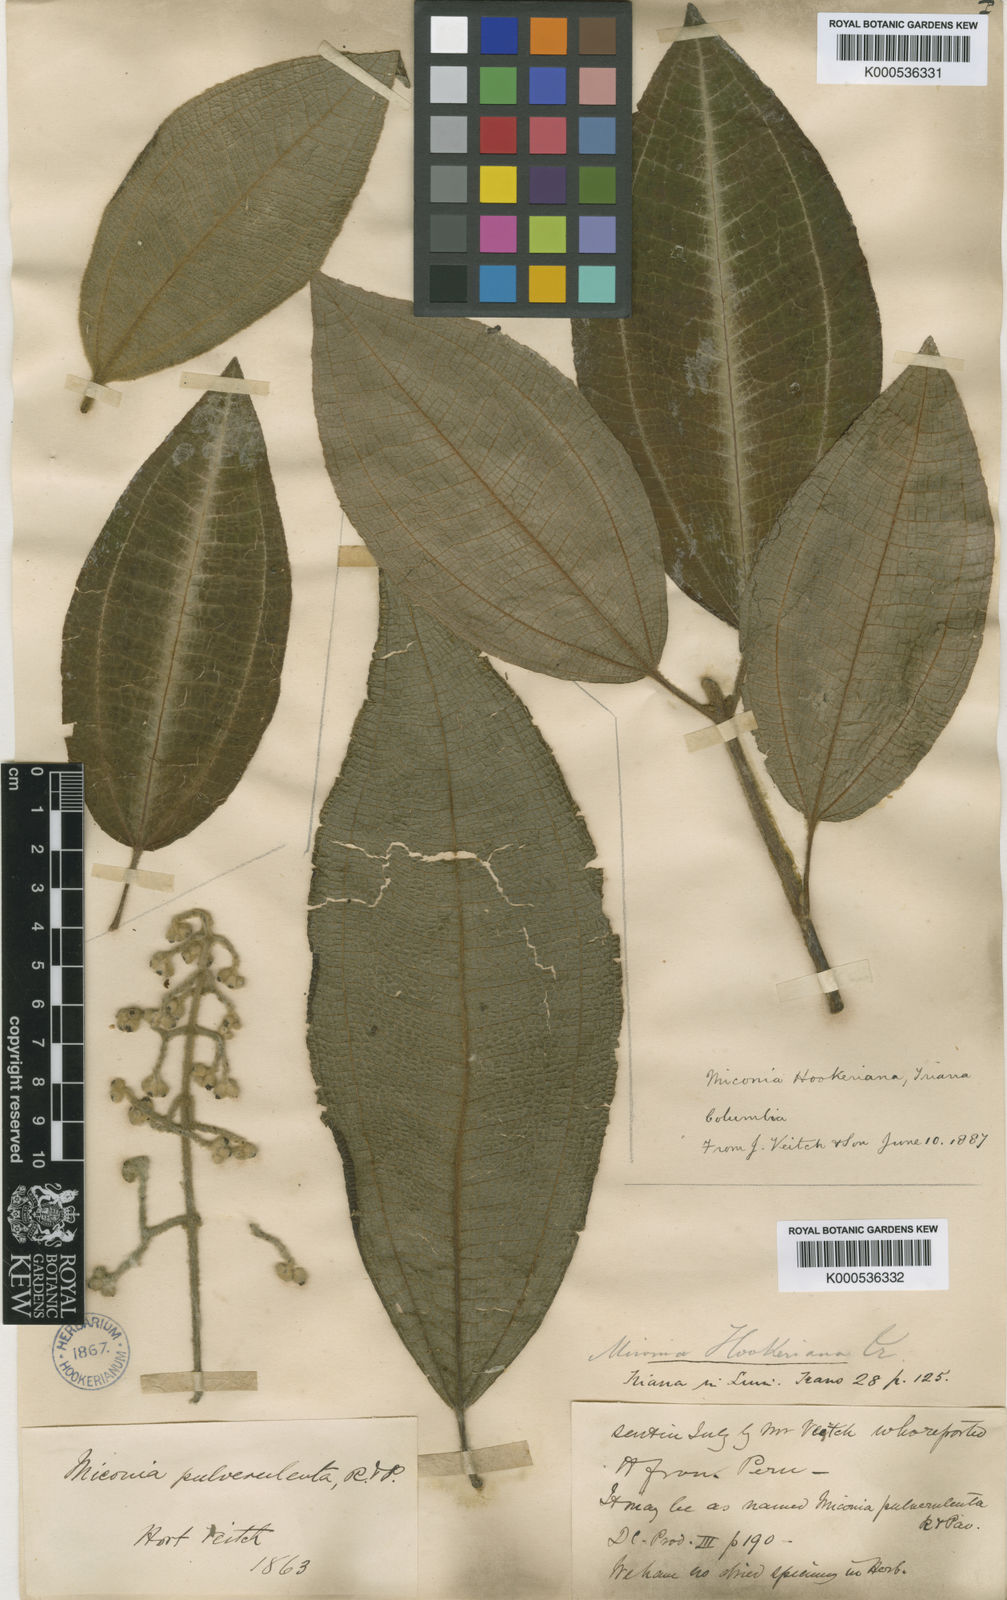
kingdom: Plantae
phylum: Tracheophyta
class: Magnoliopsida
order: Myrtales
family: Melastomataceae
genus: Miconia
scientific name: Miconia hookeriana
